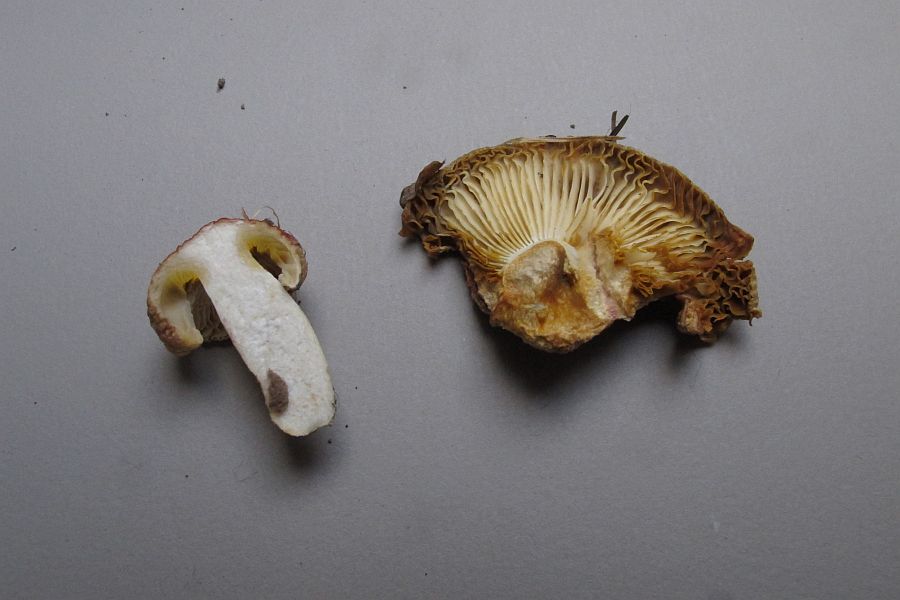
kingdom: Fungi
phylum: Basidiomycota
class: Agaricomycetes
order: Russulales
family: Russulaceae
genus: Russula
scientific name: Russula luteotacta
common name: gulplettet gift-skørhat
